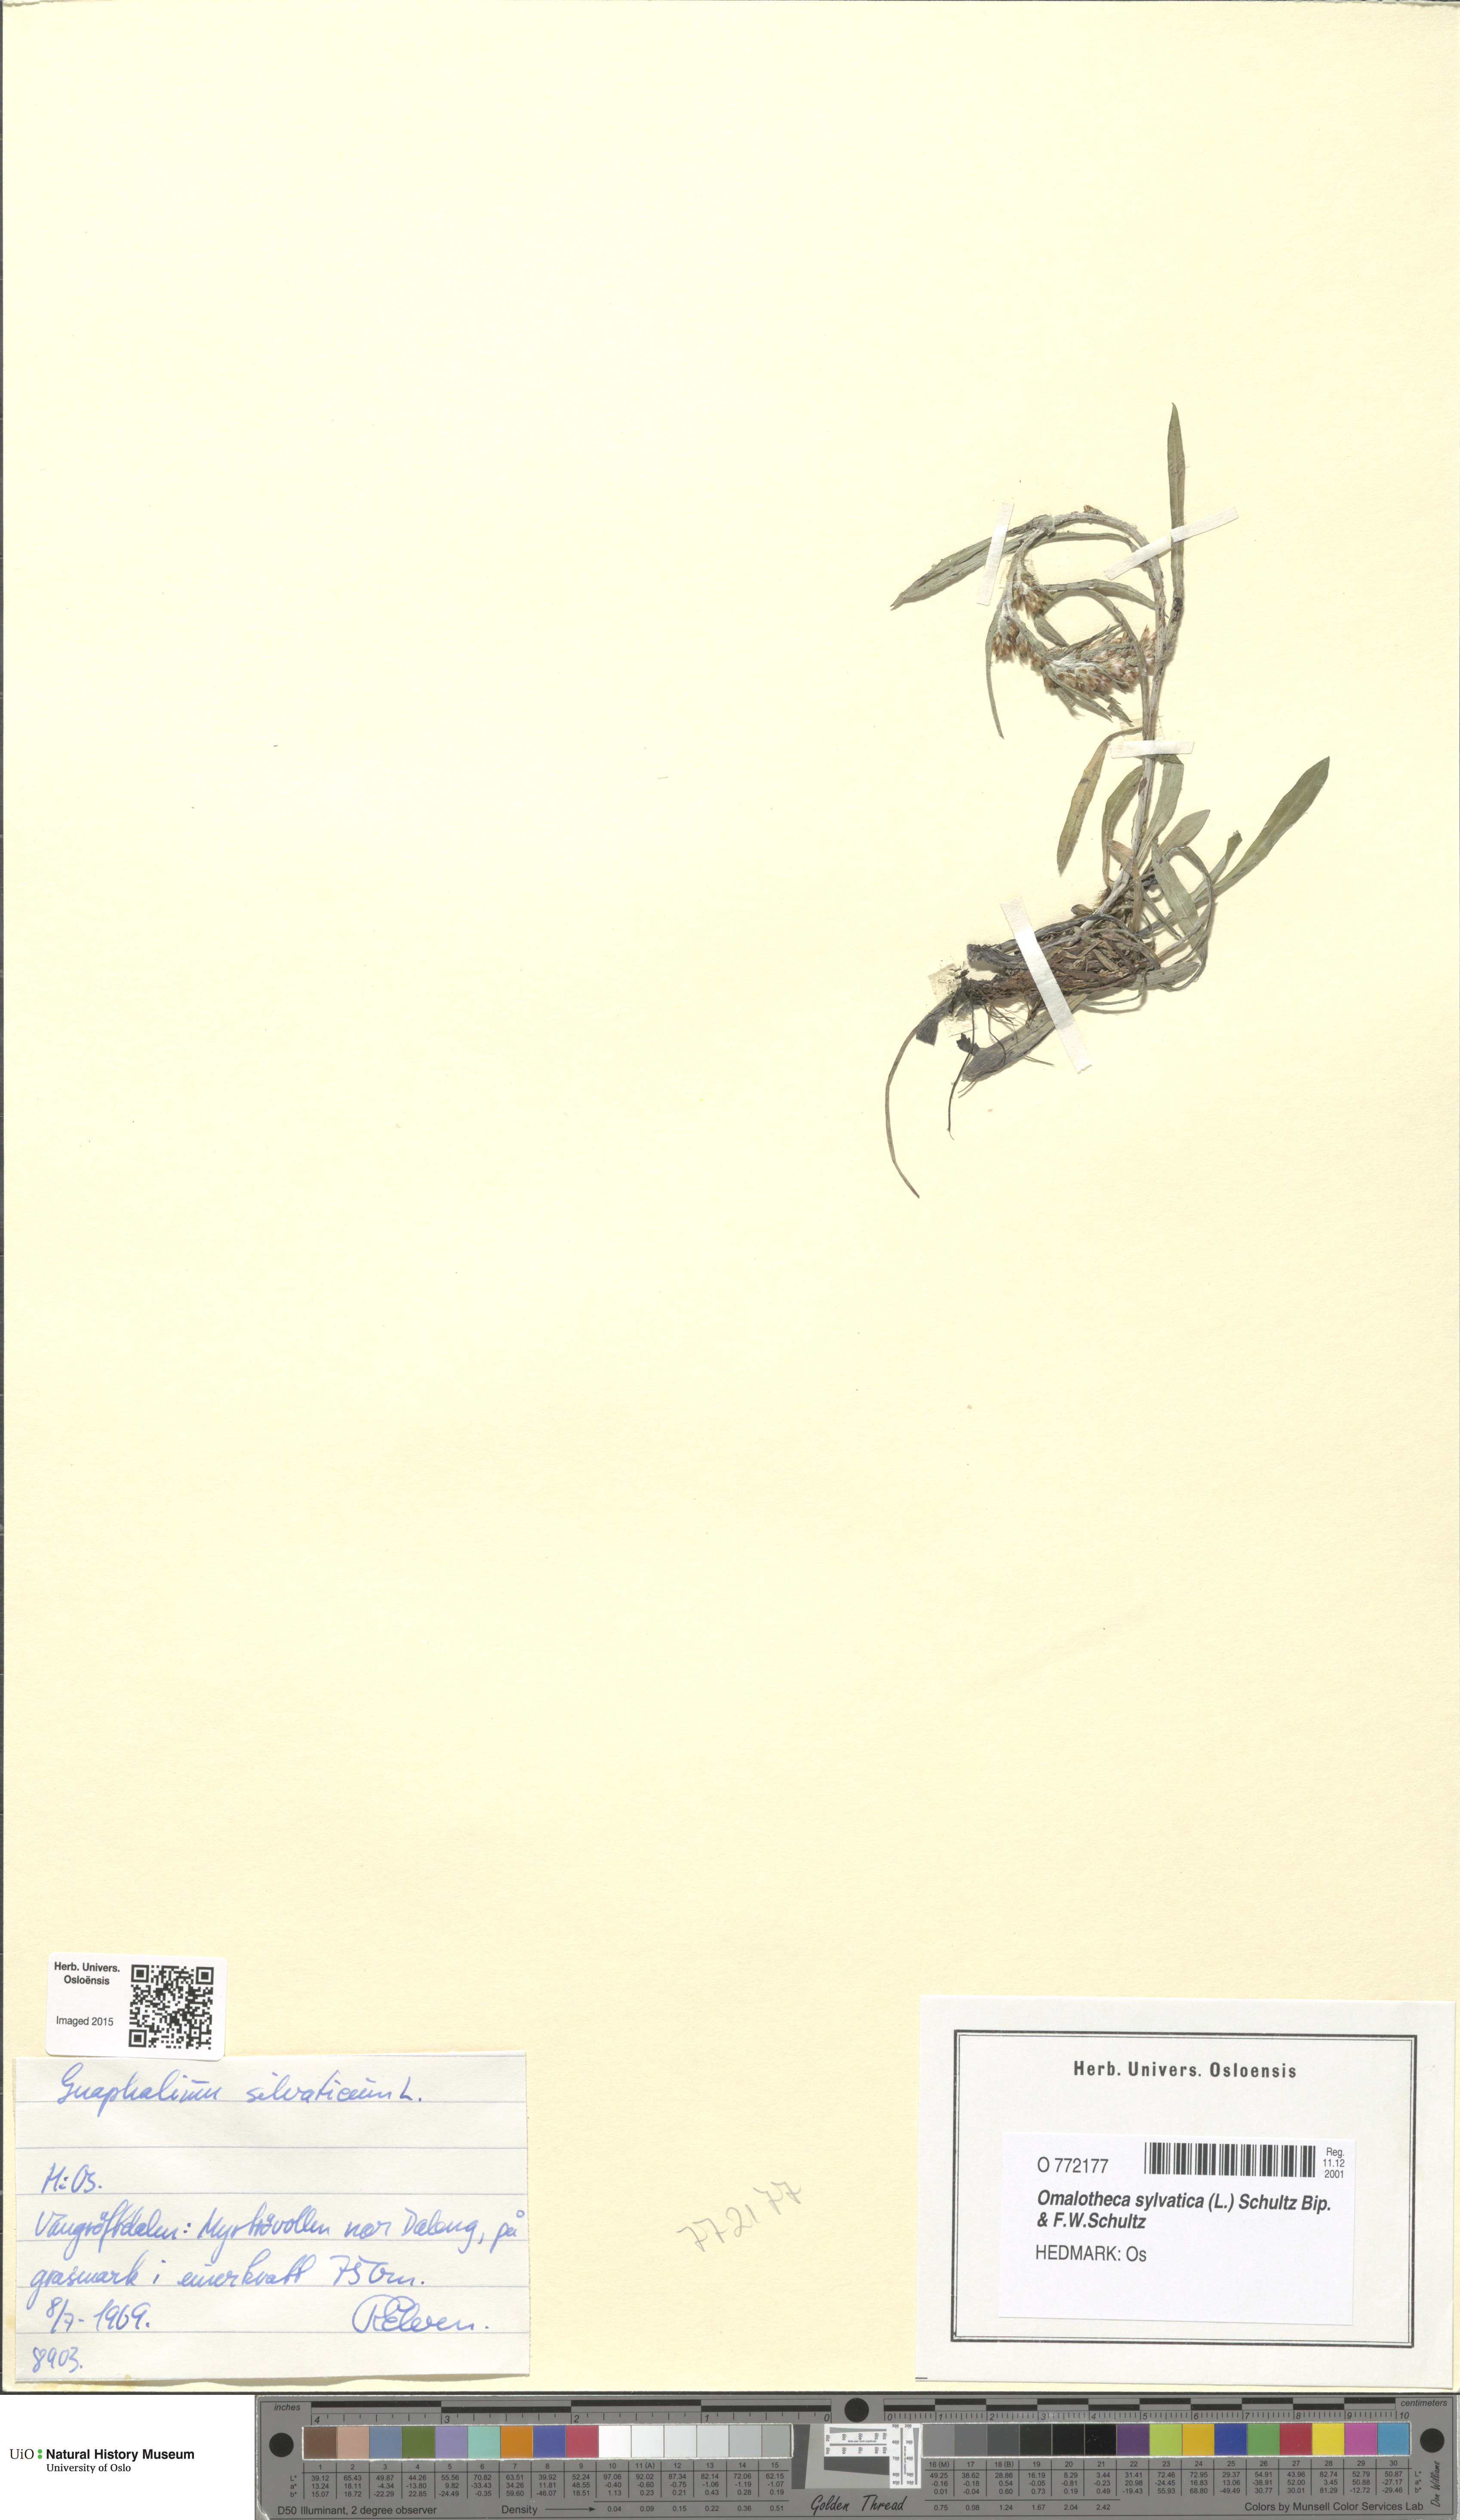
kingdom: Plantae
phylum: Tracheophyta
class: Magnoliopsida
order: Asterales
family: Asteraceae
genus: Omalotheca
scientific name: Omalotheca sylvatica
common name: Heath cudweed
